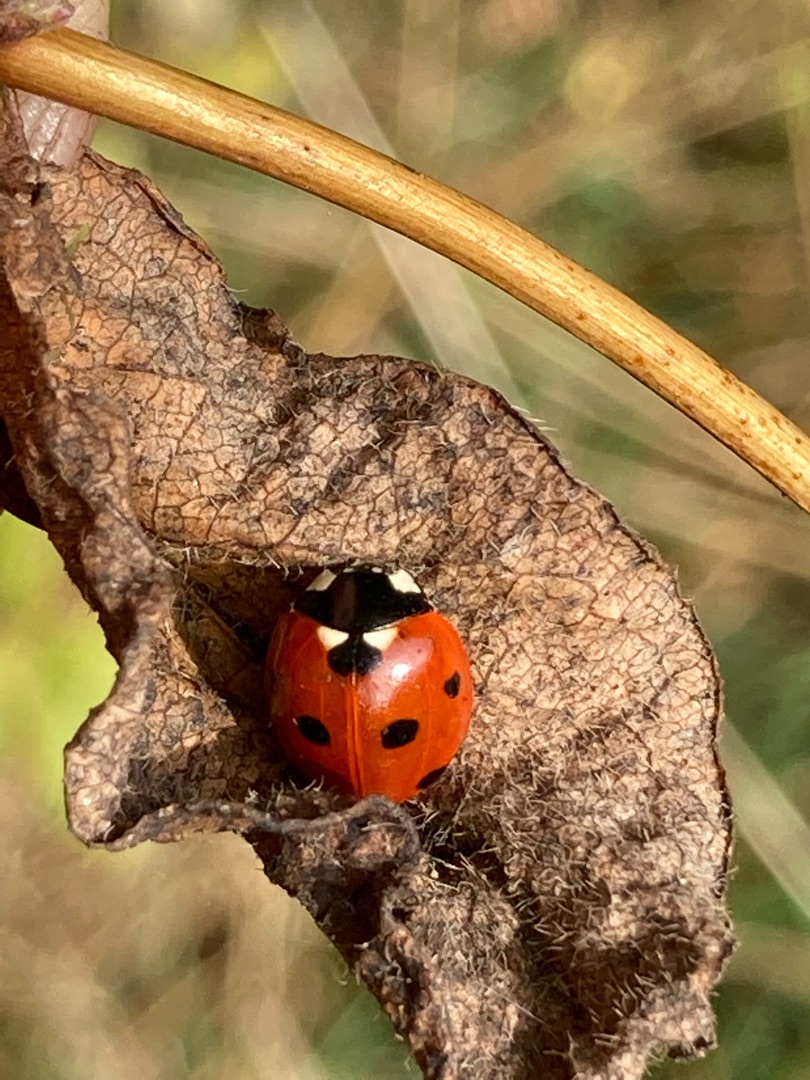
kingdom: Animalia
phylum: Arthropoda
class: Insecta
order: Coleoptera
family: Coccinellidae
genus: Coccinella
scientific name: Coccinella septempunctata
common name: Syvplettet mariehøne
